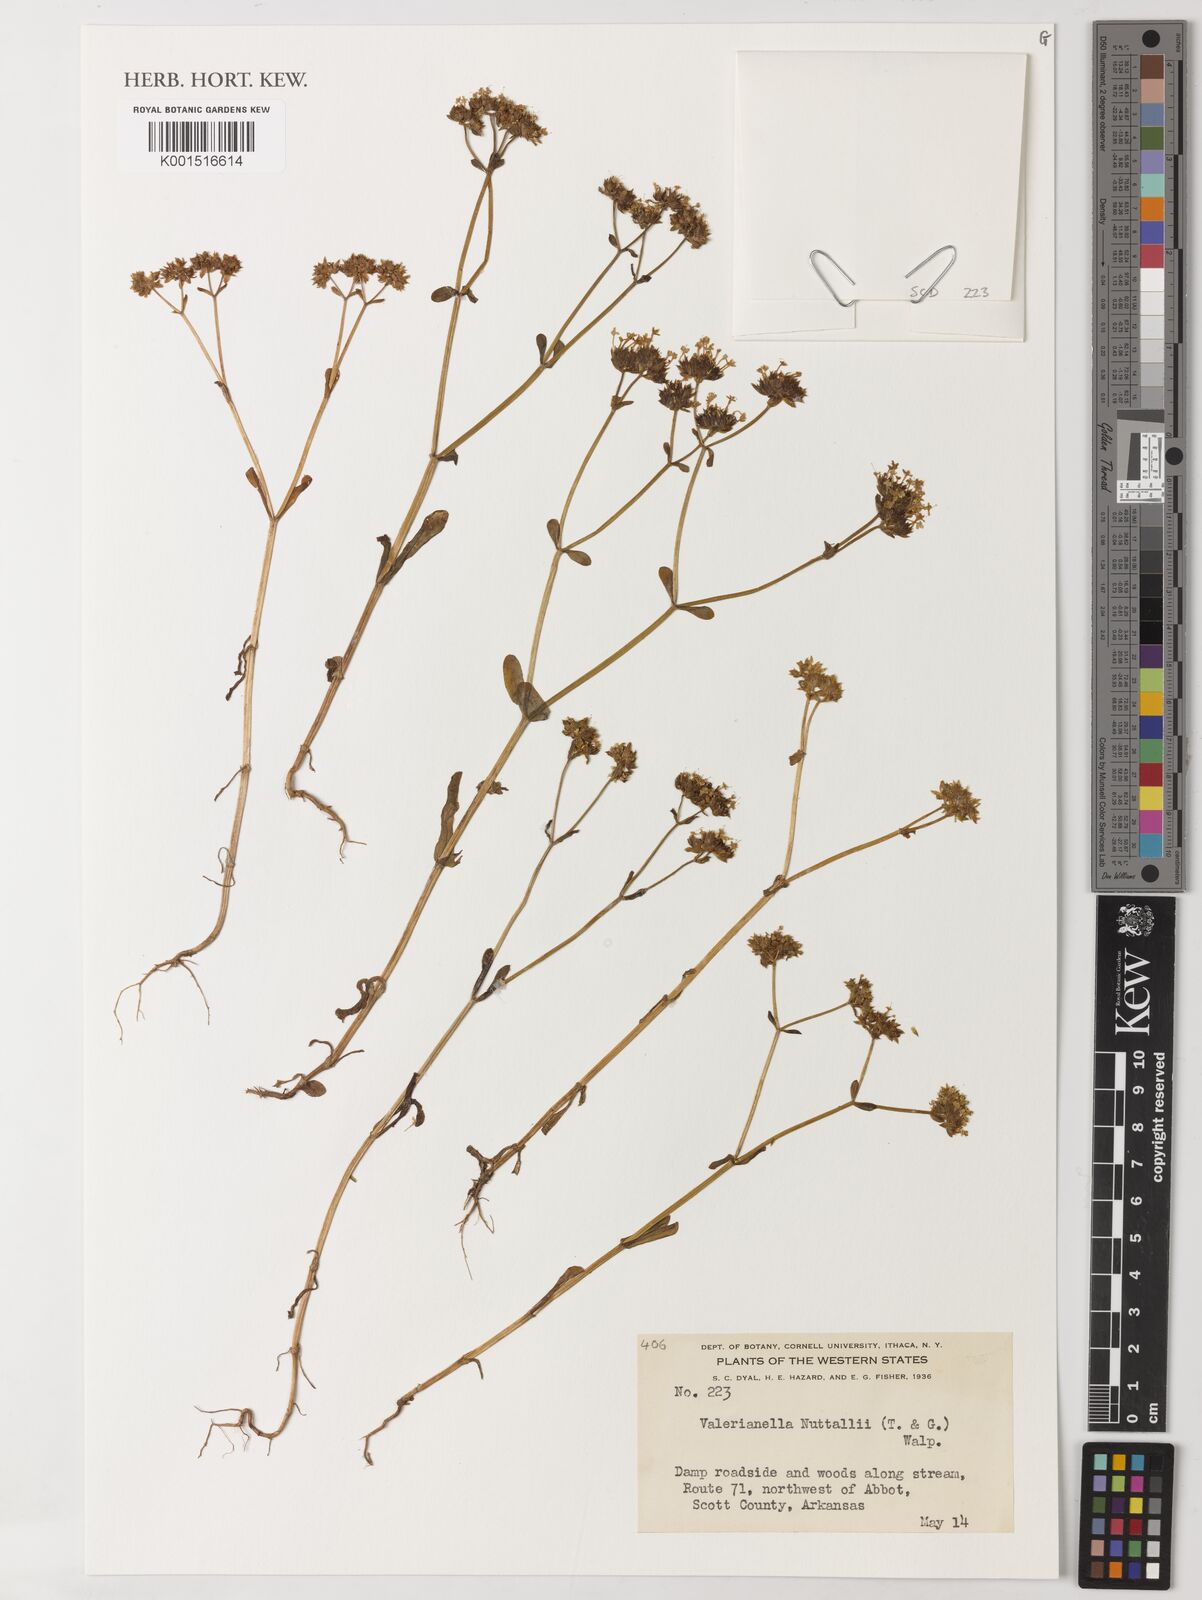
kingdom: Plantae
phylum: Tracheophyta
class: Magnoliopsida
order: Dipsacales
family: Caprifoliaceae
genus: Valerianella
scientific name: Valerianella nuttallii
